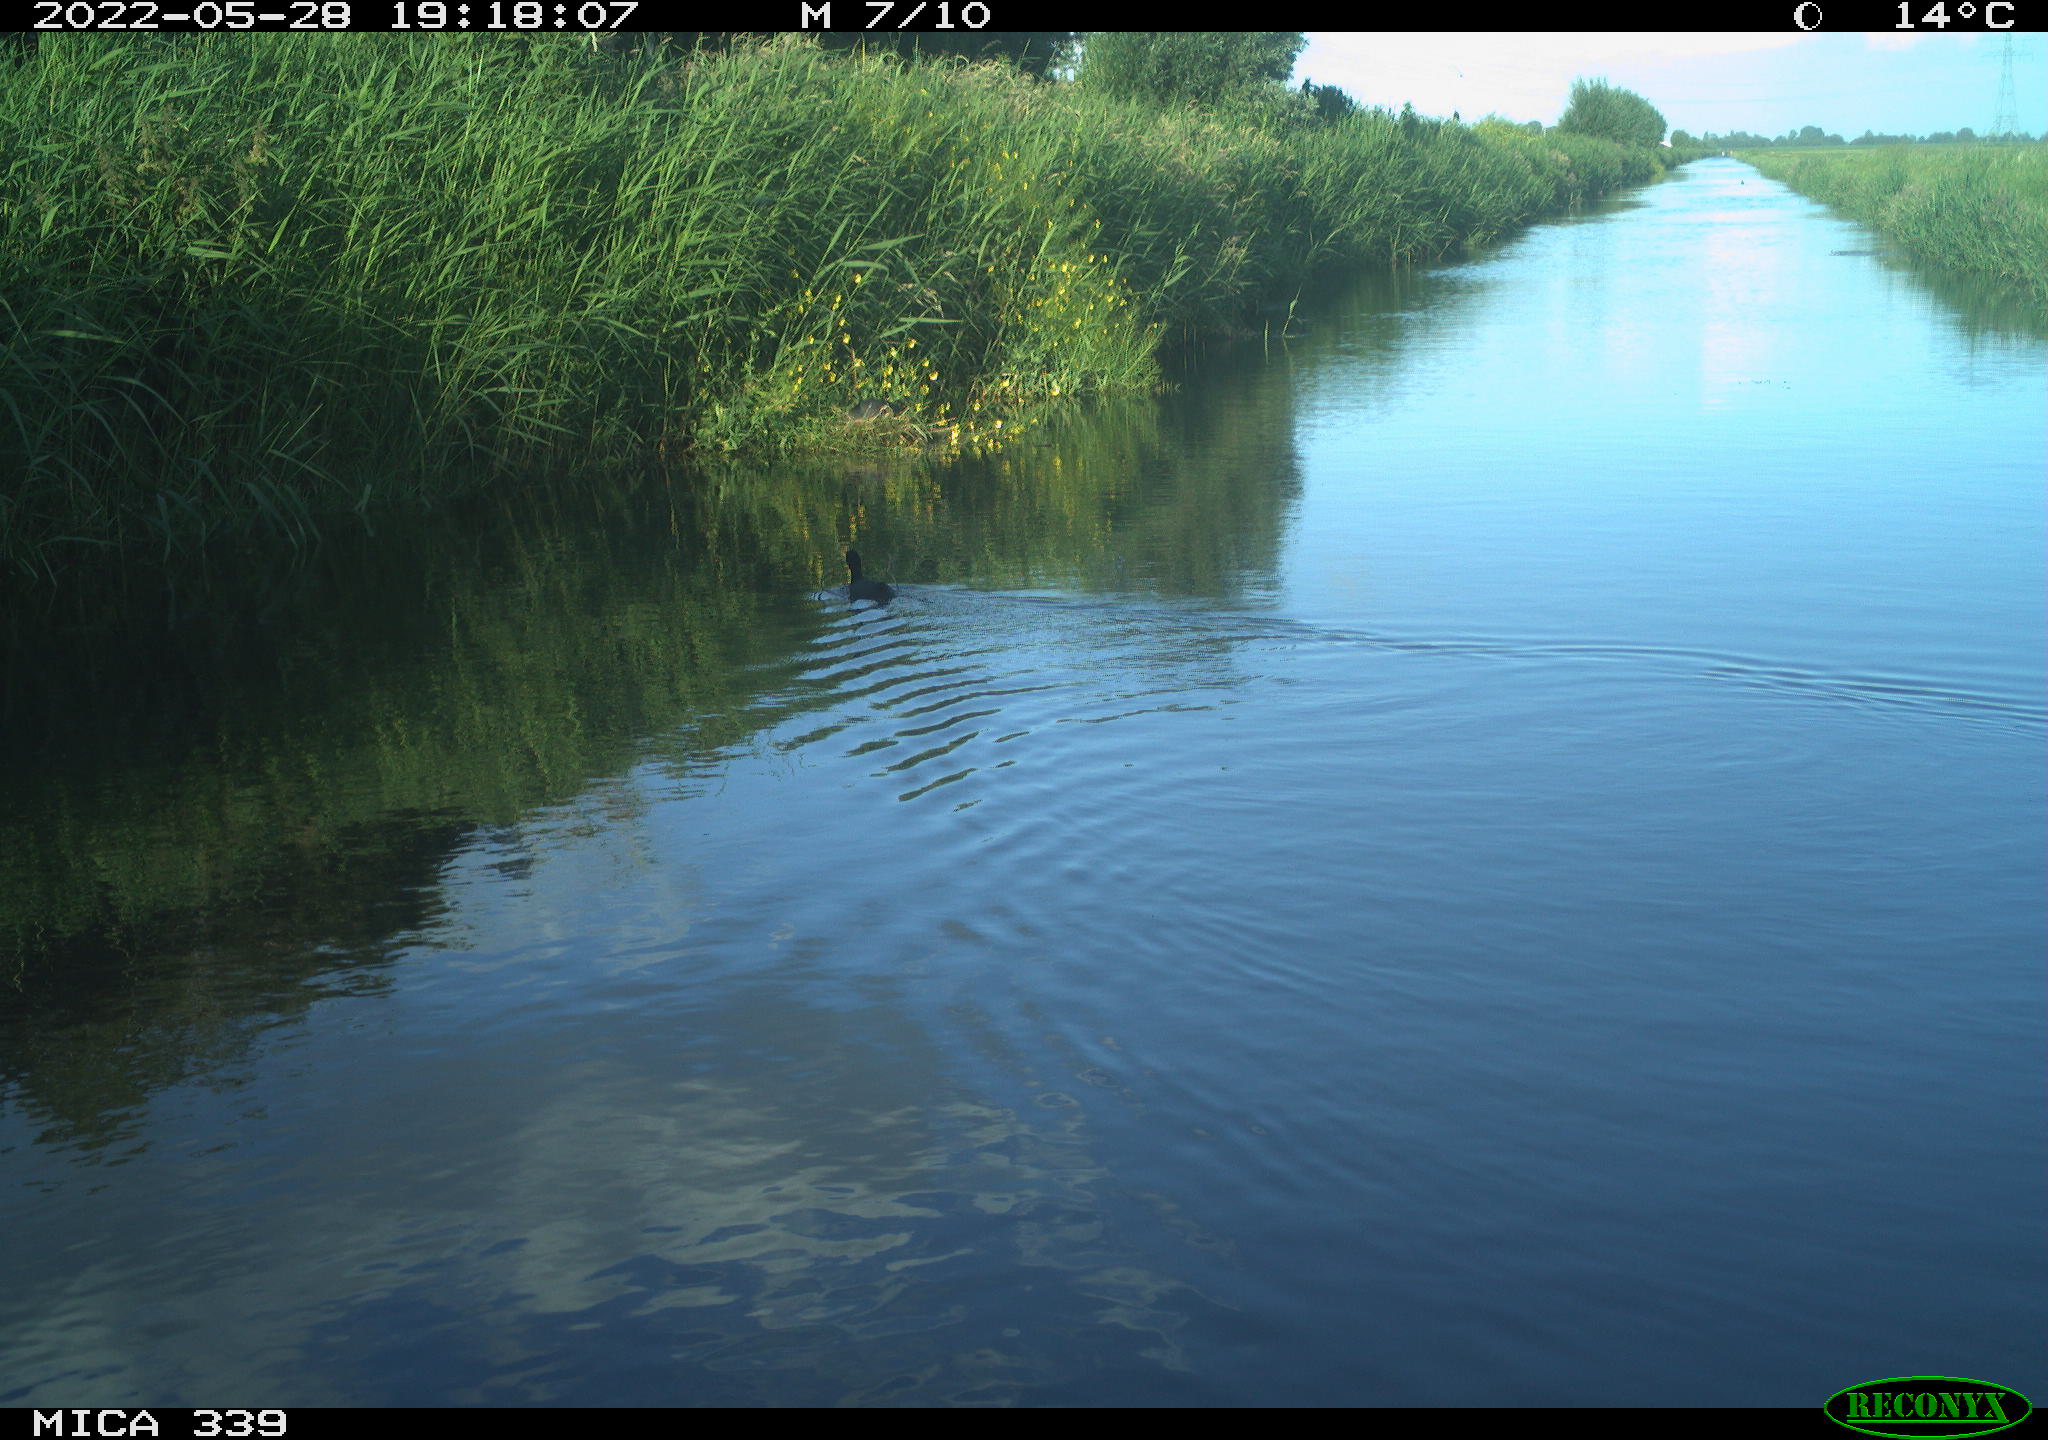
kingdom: Animalia
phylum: Chordata
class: Aves
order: Gruiformes
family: Rallidae
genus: Fulica
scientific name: Fulica atra
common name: Eurasian coot
